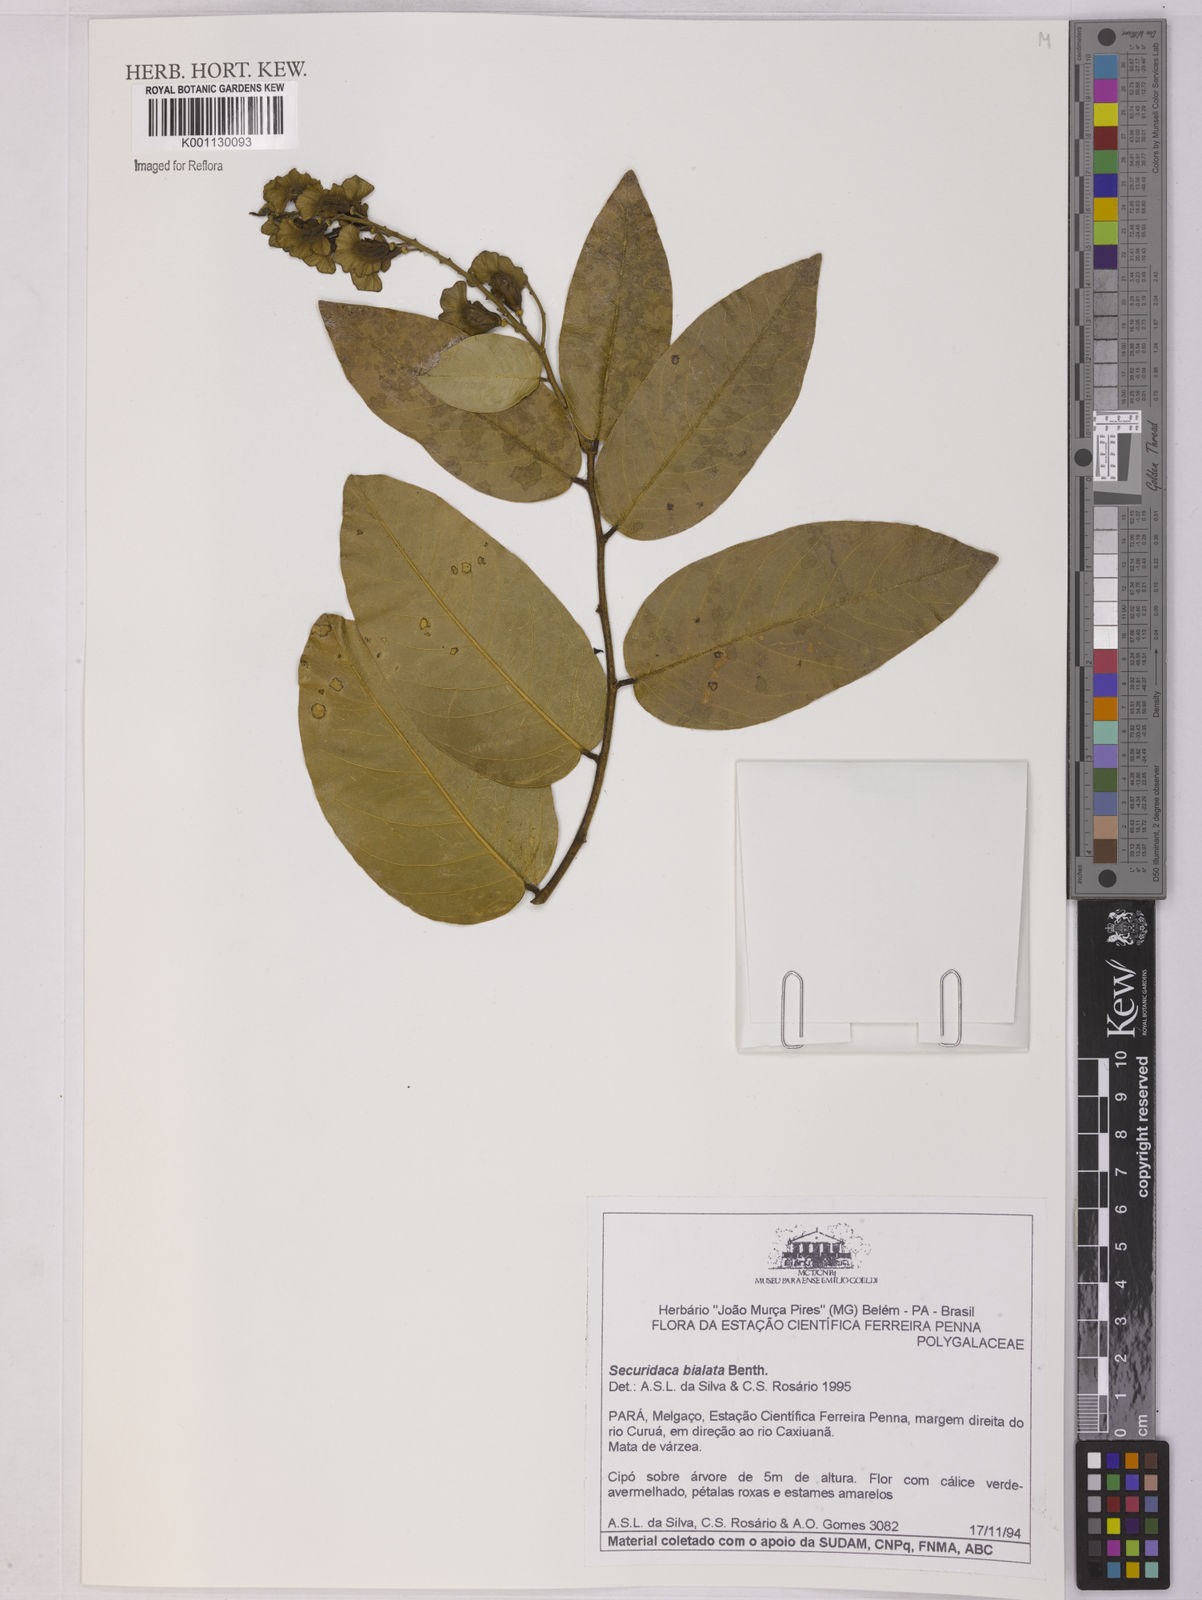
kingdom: Plantae
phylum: Tracheophyta
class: Magnoliopsida
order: Fabales
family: Polygalaceae
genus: Securidaca
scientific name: Securidaca bialata
